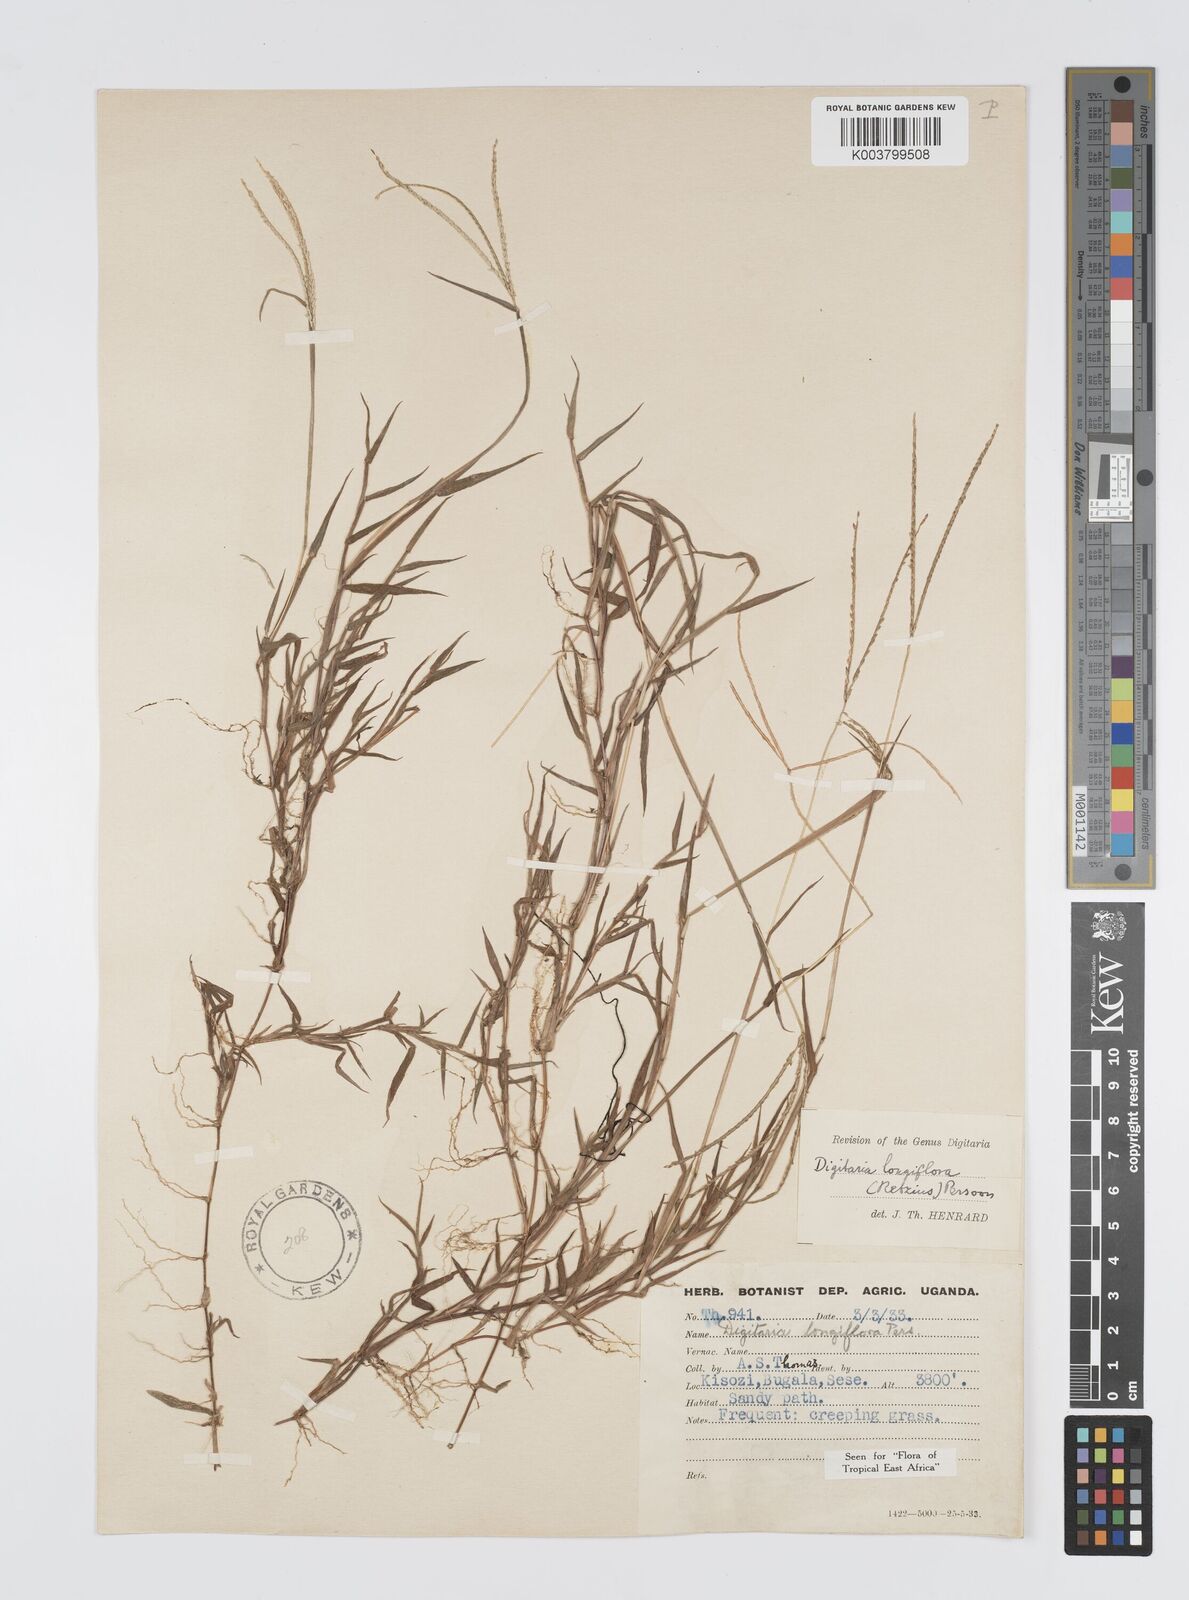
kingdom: Plantae
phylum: Tracheophyta
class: Liliopsida
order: Poales
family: Poaceae
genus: Digitaria
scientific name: Digitaria longiflora
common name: Wire crabgrass
